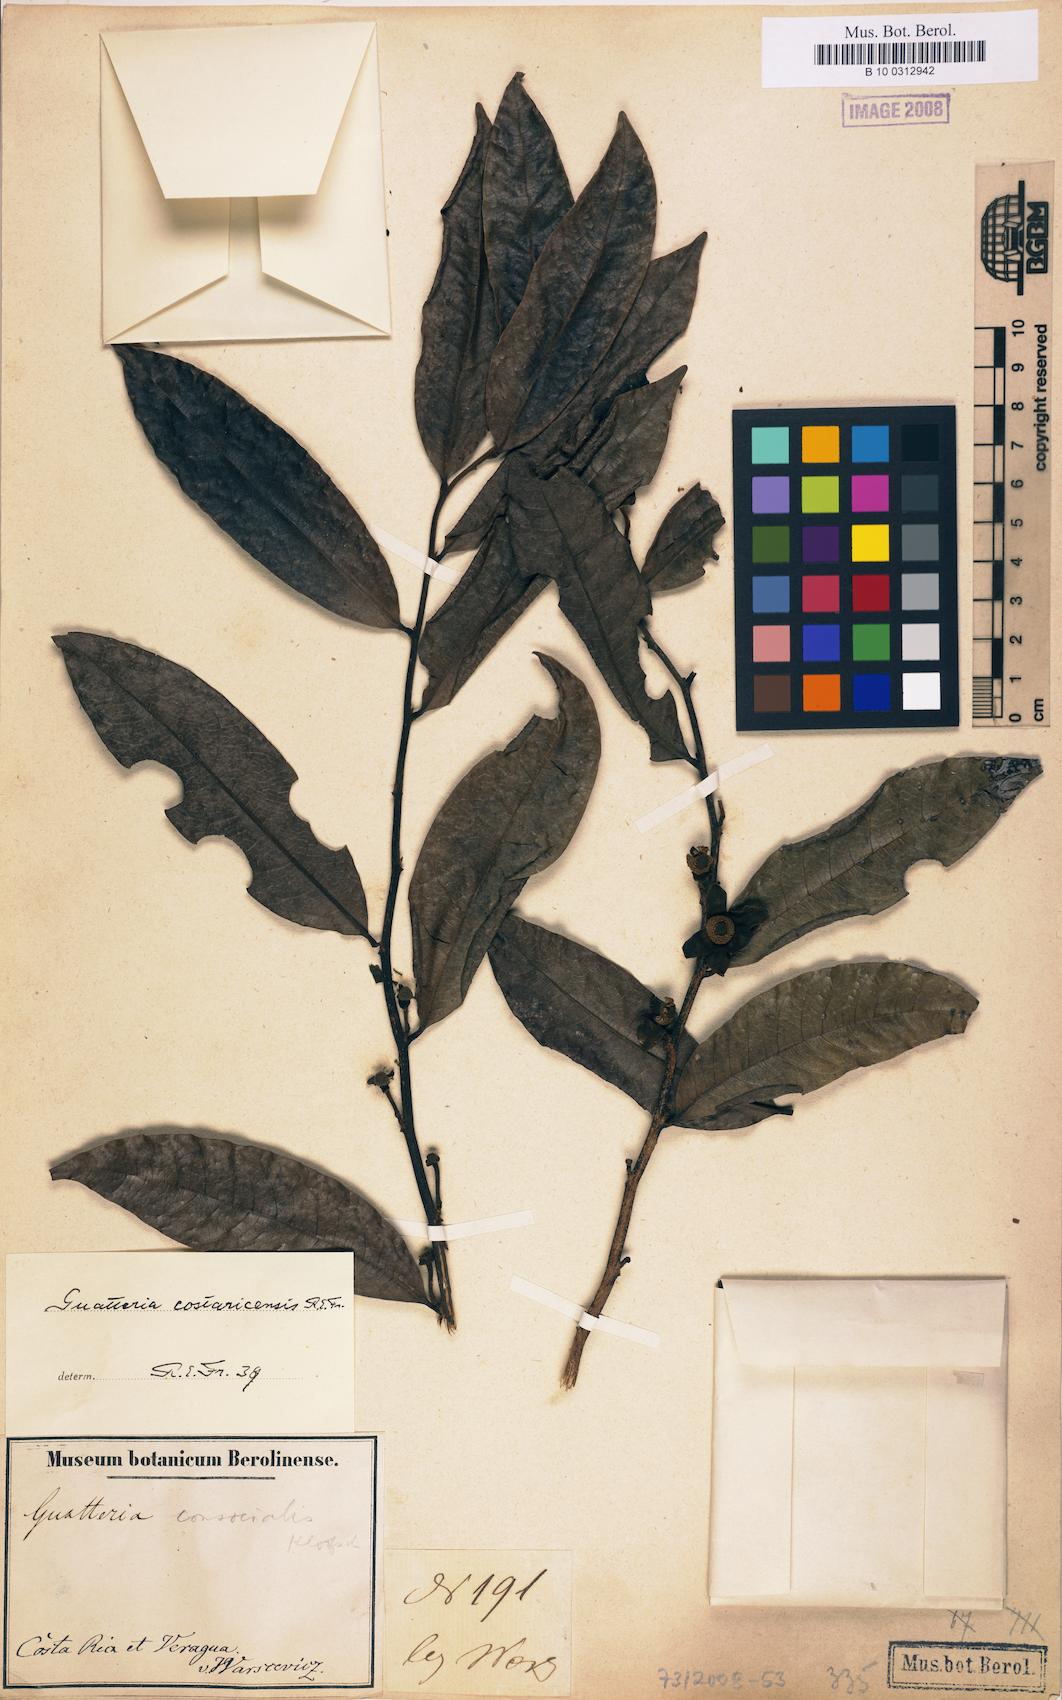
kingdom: Plantae
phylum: Tracheophyta
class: Magnoliopsida
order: Magnoliales
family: Annonaceae
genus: Guatteria
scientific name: Guatteria costaricensis
